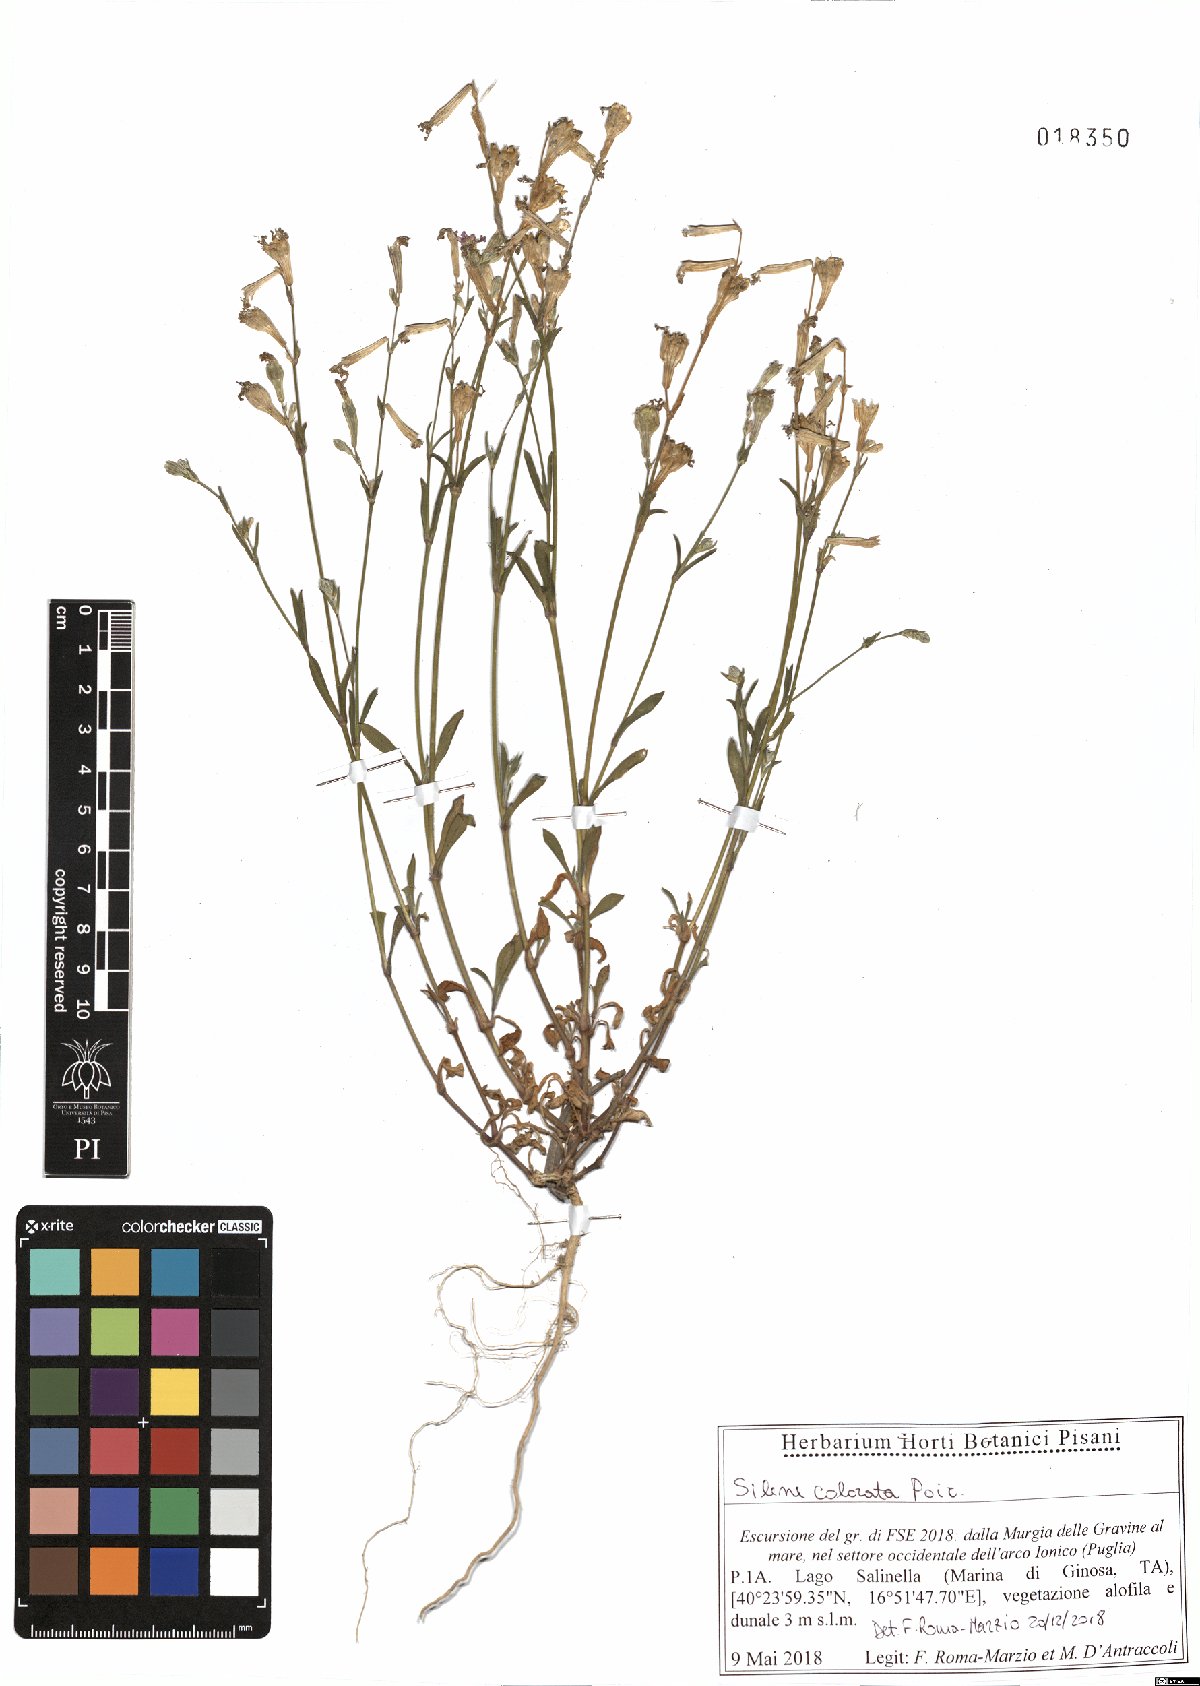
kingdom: Plantae
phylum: Tracheophyta
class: Magnoliopsida
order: Caryophyllales
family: Caryophyllaceae
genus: Silene
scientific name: Silene colorata
